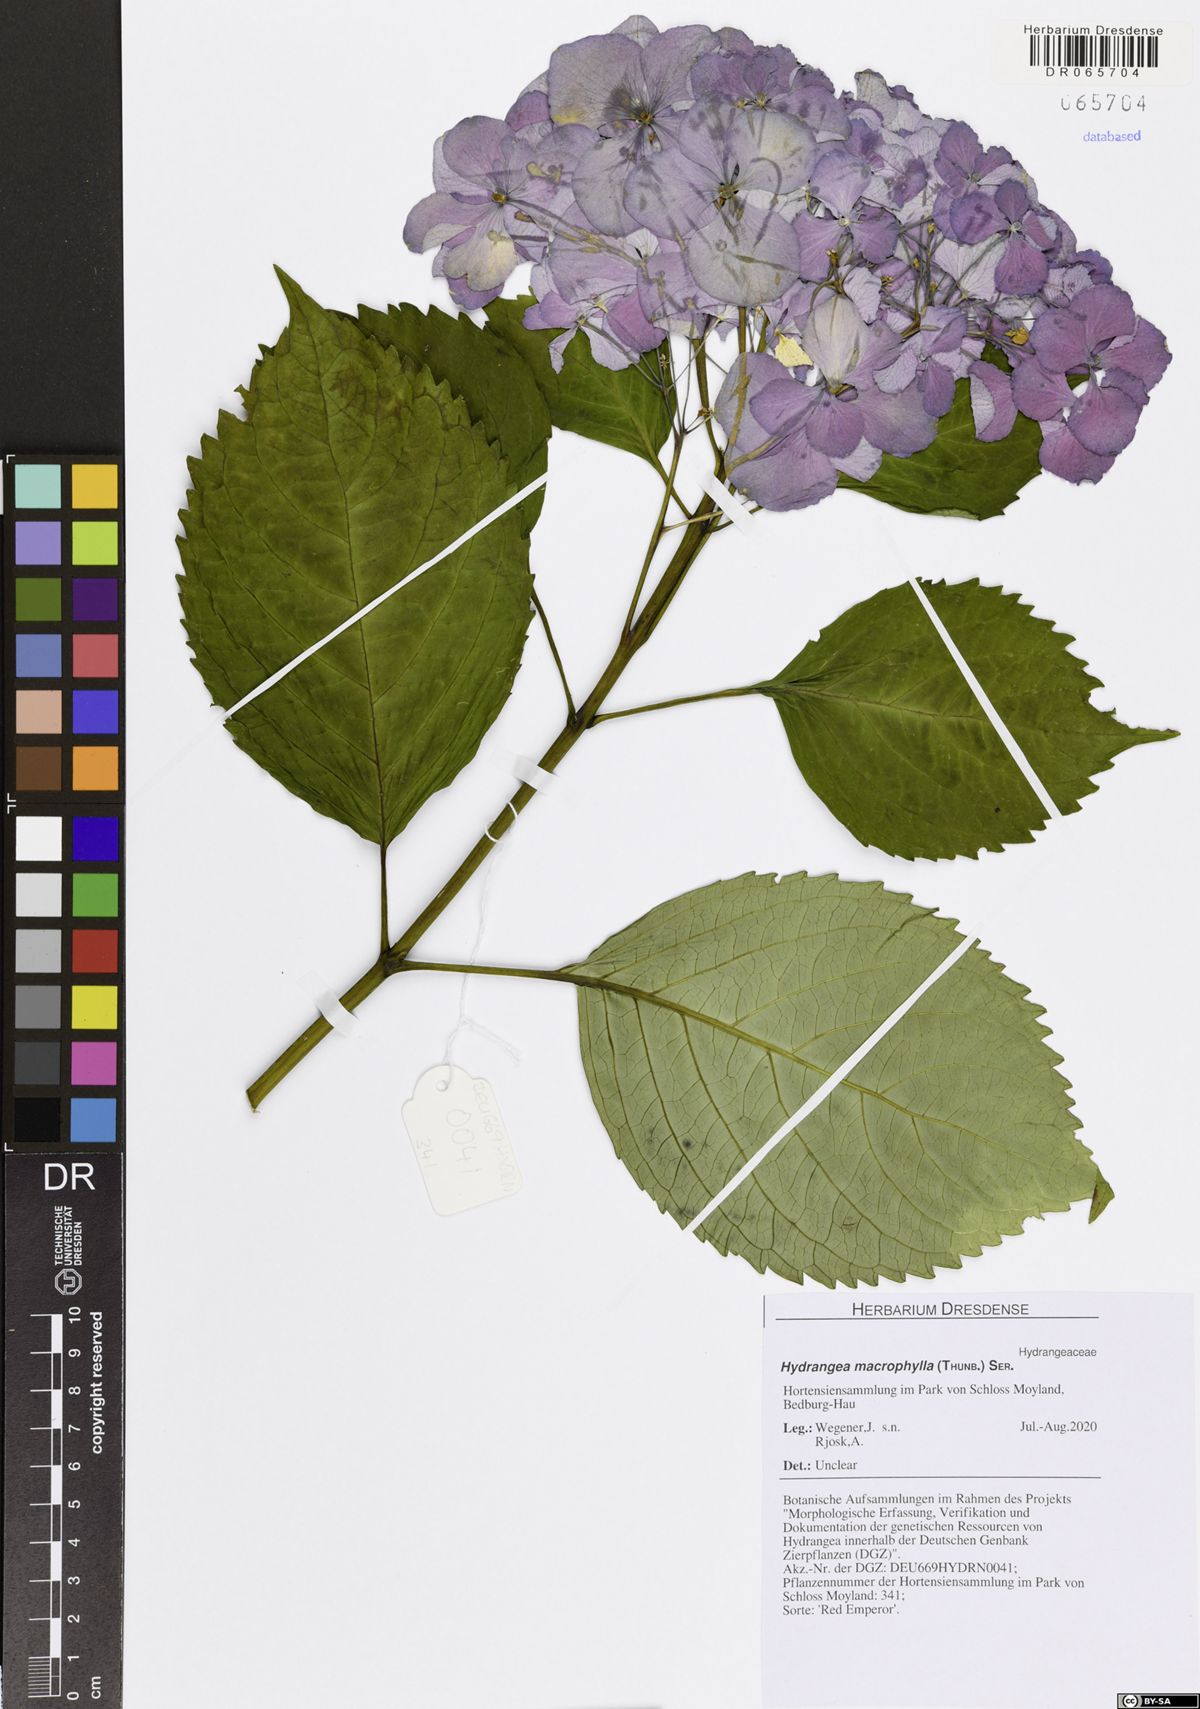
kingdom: Plantae
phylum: Tracheophyta
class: Magnoliopsida
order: Cornales
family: Hydrangeaceae
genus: Hydrangea
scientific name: Hydrangea macrophylla
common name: Hydrangea
